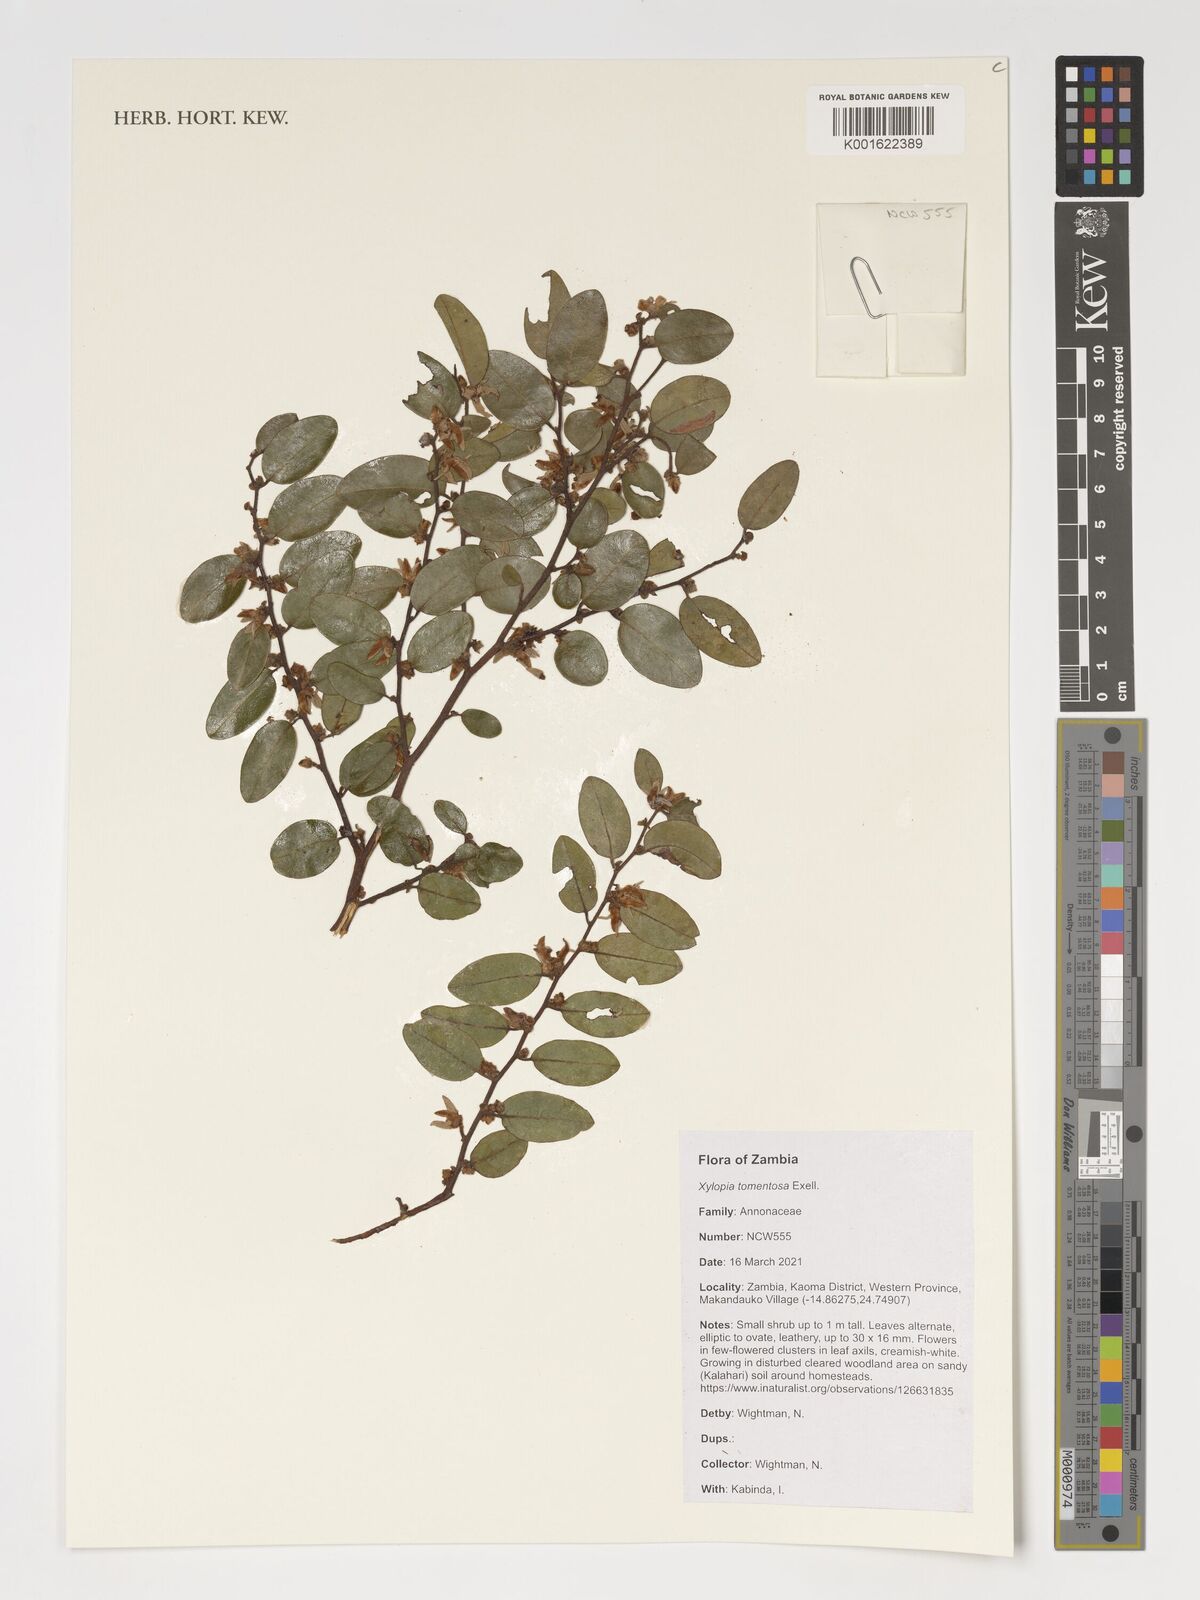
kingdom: Plantae
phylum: Tracheophyta
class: Magnoliopsida
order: Magnoliales
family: Annonaceae
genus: Xylopia
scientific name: Xylopia tomentosa
